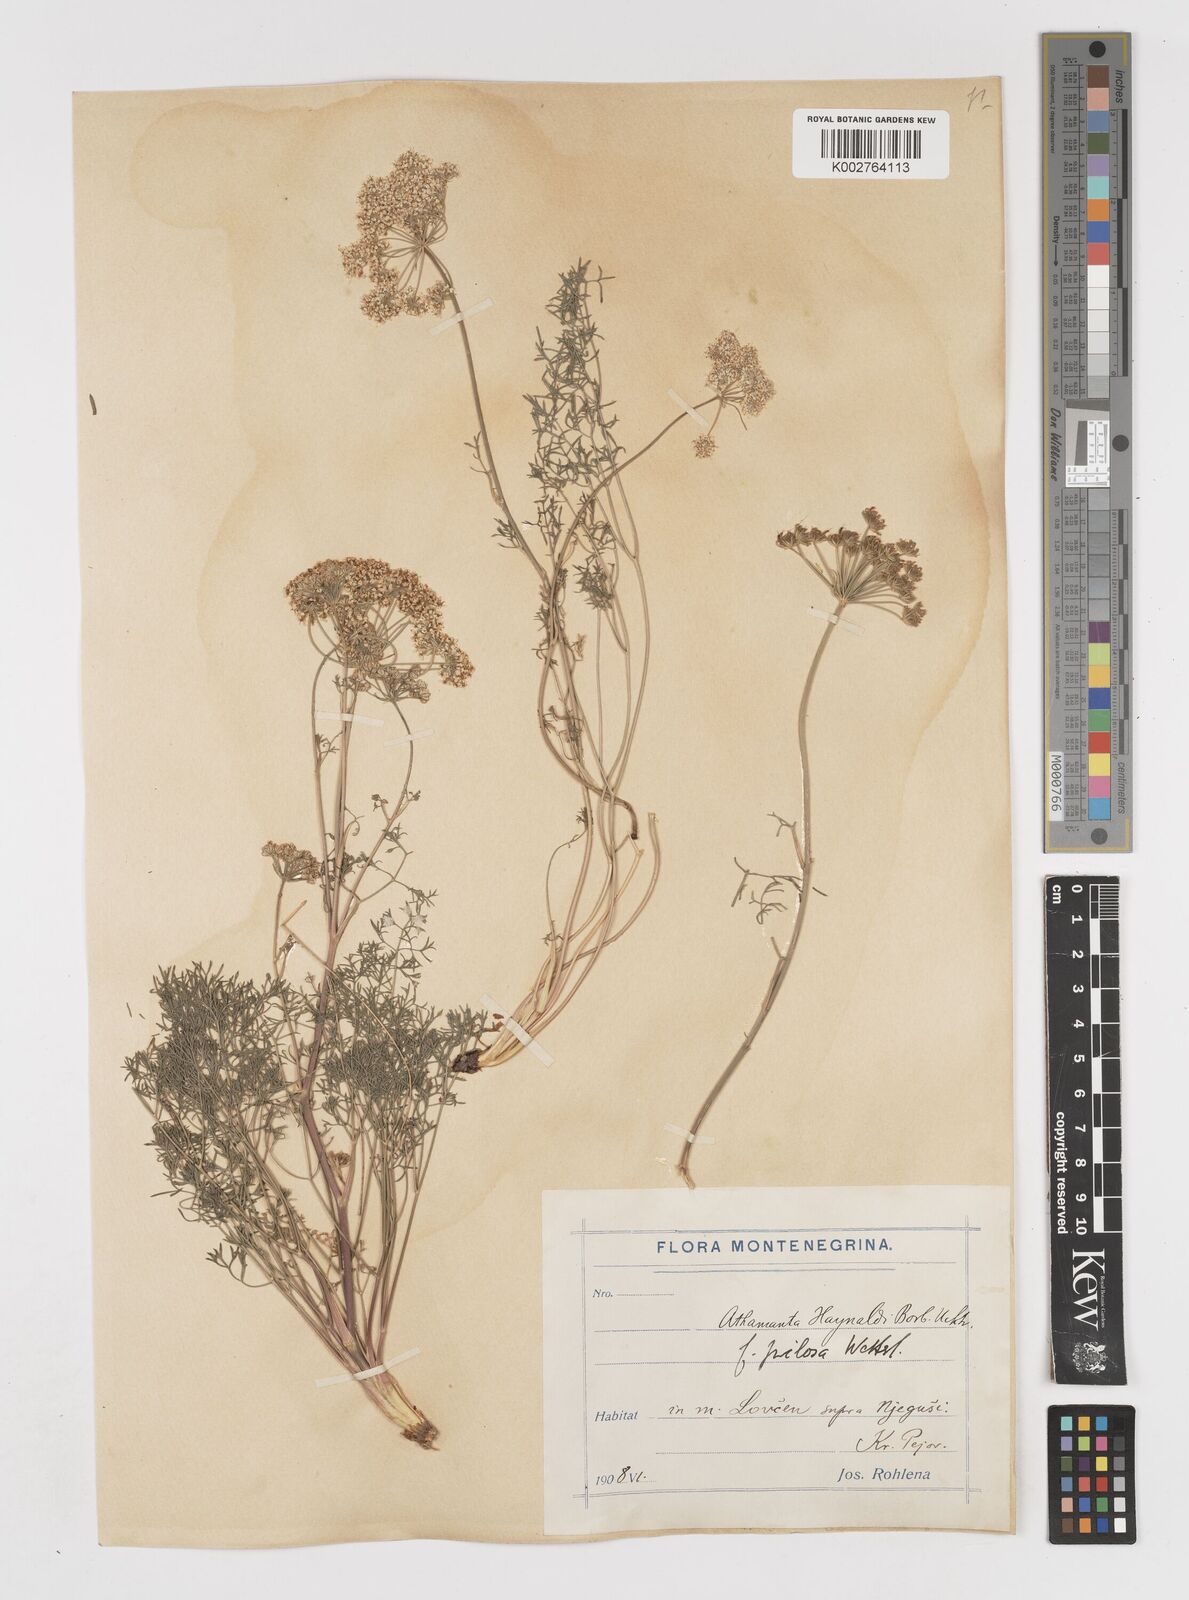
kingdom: Plantae
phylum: Tracheophyta
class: Magnoliopsida
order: Apiales
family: Apiaceae
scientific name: Apiaceae
